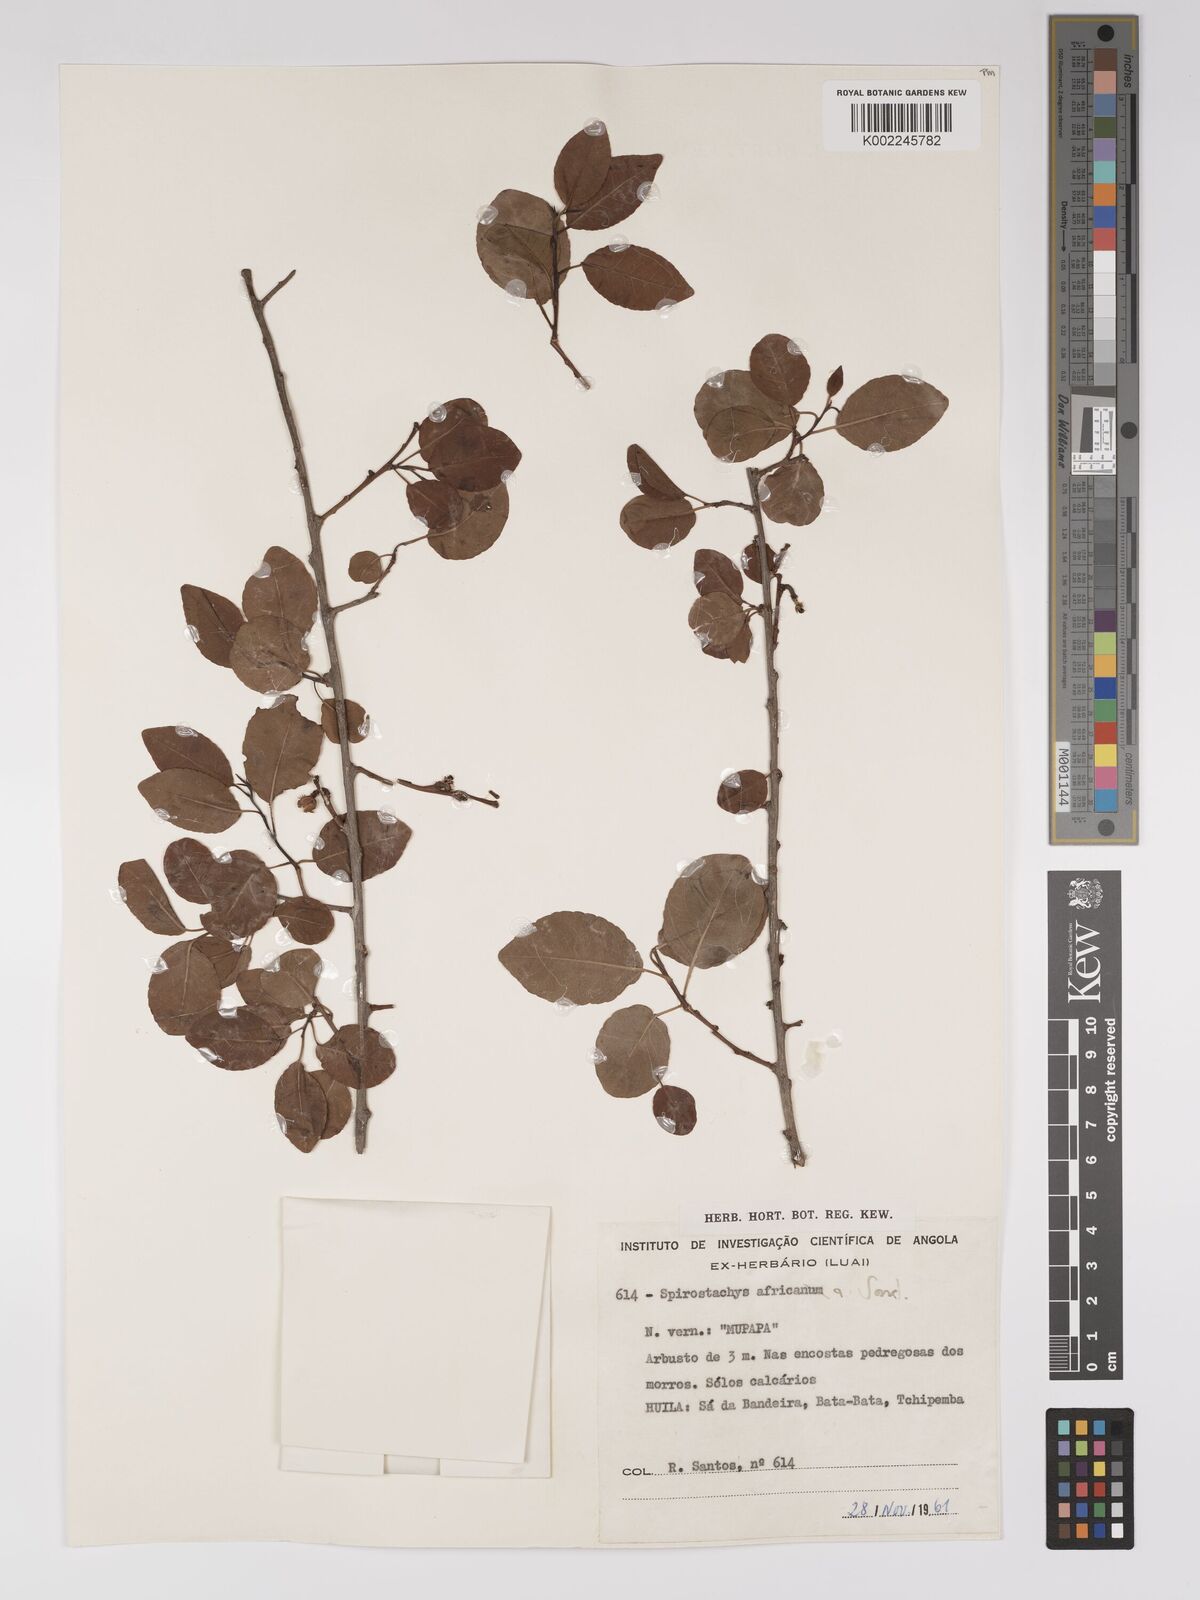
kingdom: Plantae
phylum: Tracheophyta
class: Magnoliopsida
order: Malpighiales
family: Euphorbiaceae
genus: Spirostachys
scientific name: Spirostachys africana
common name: Tamboti
